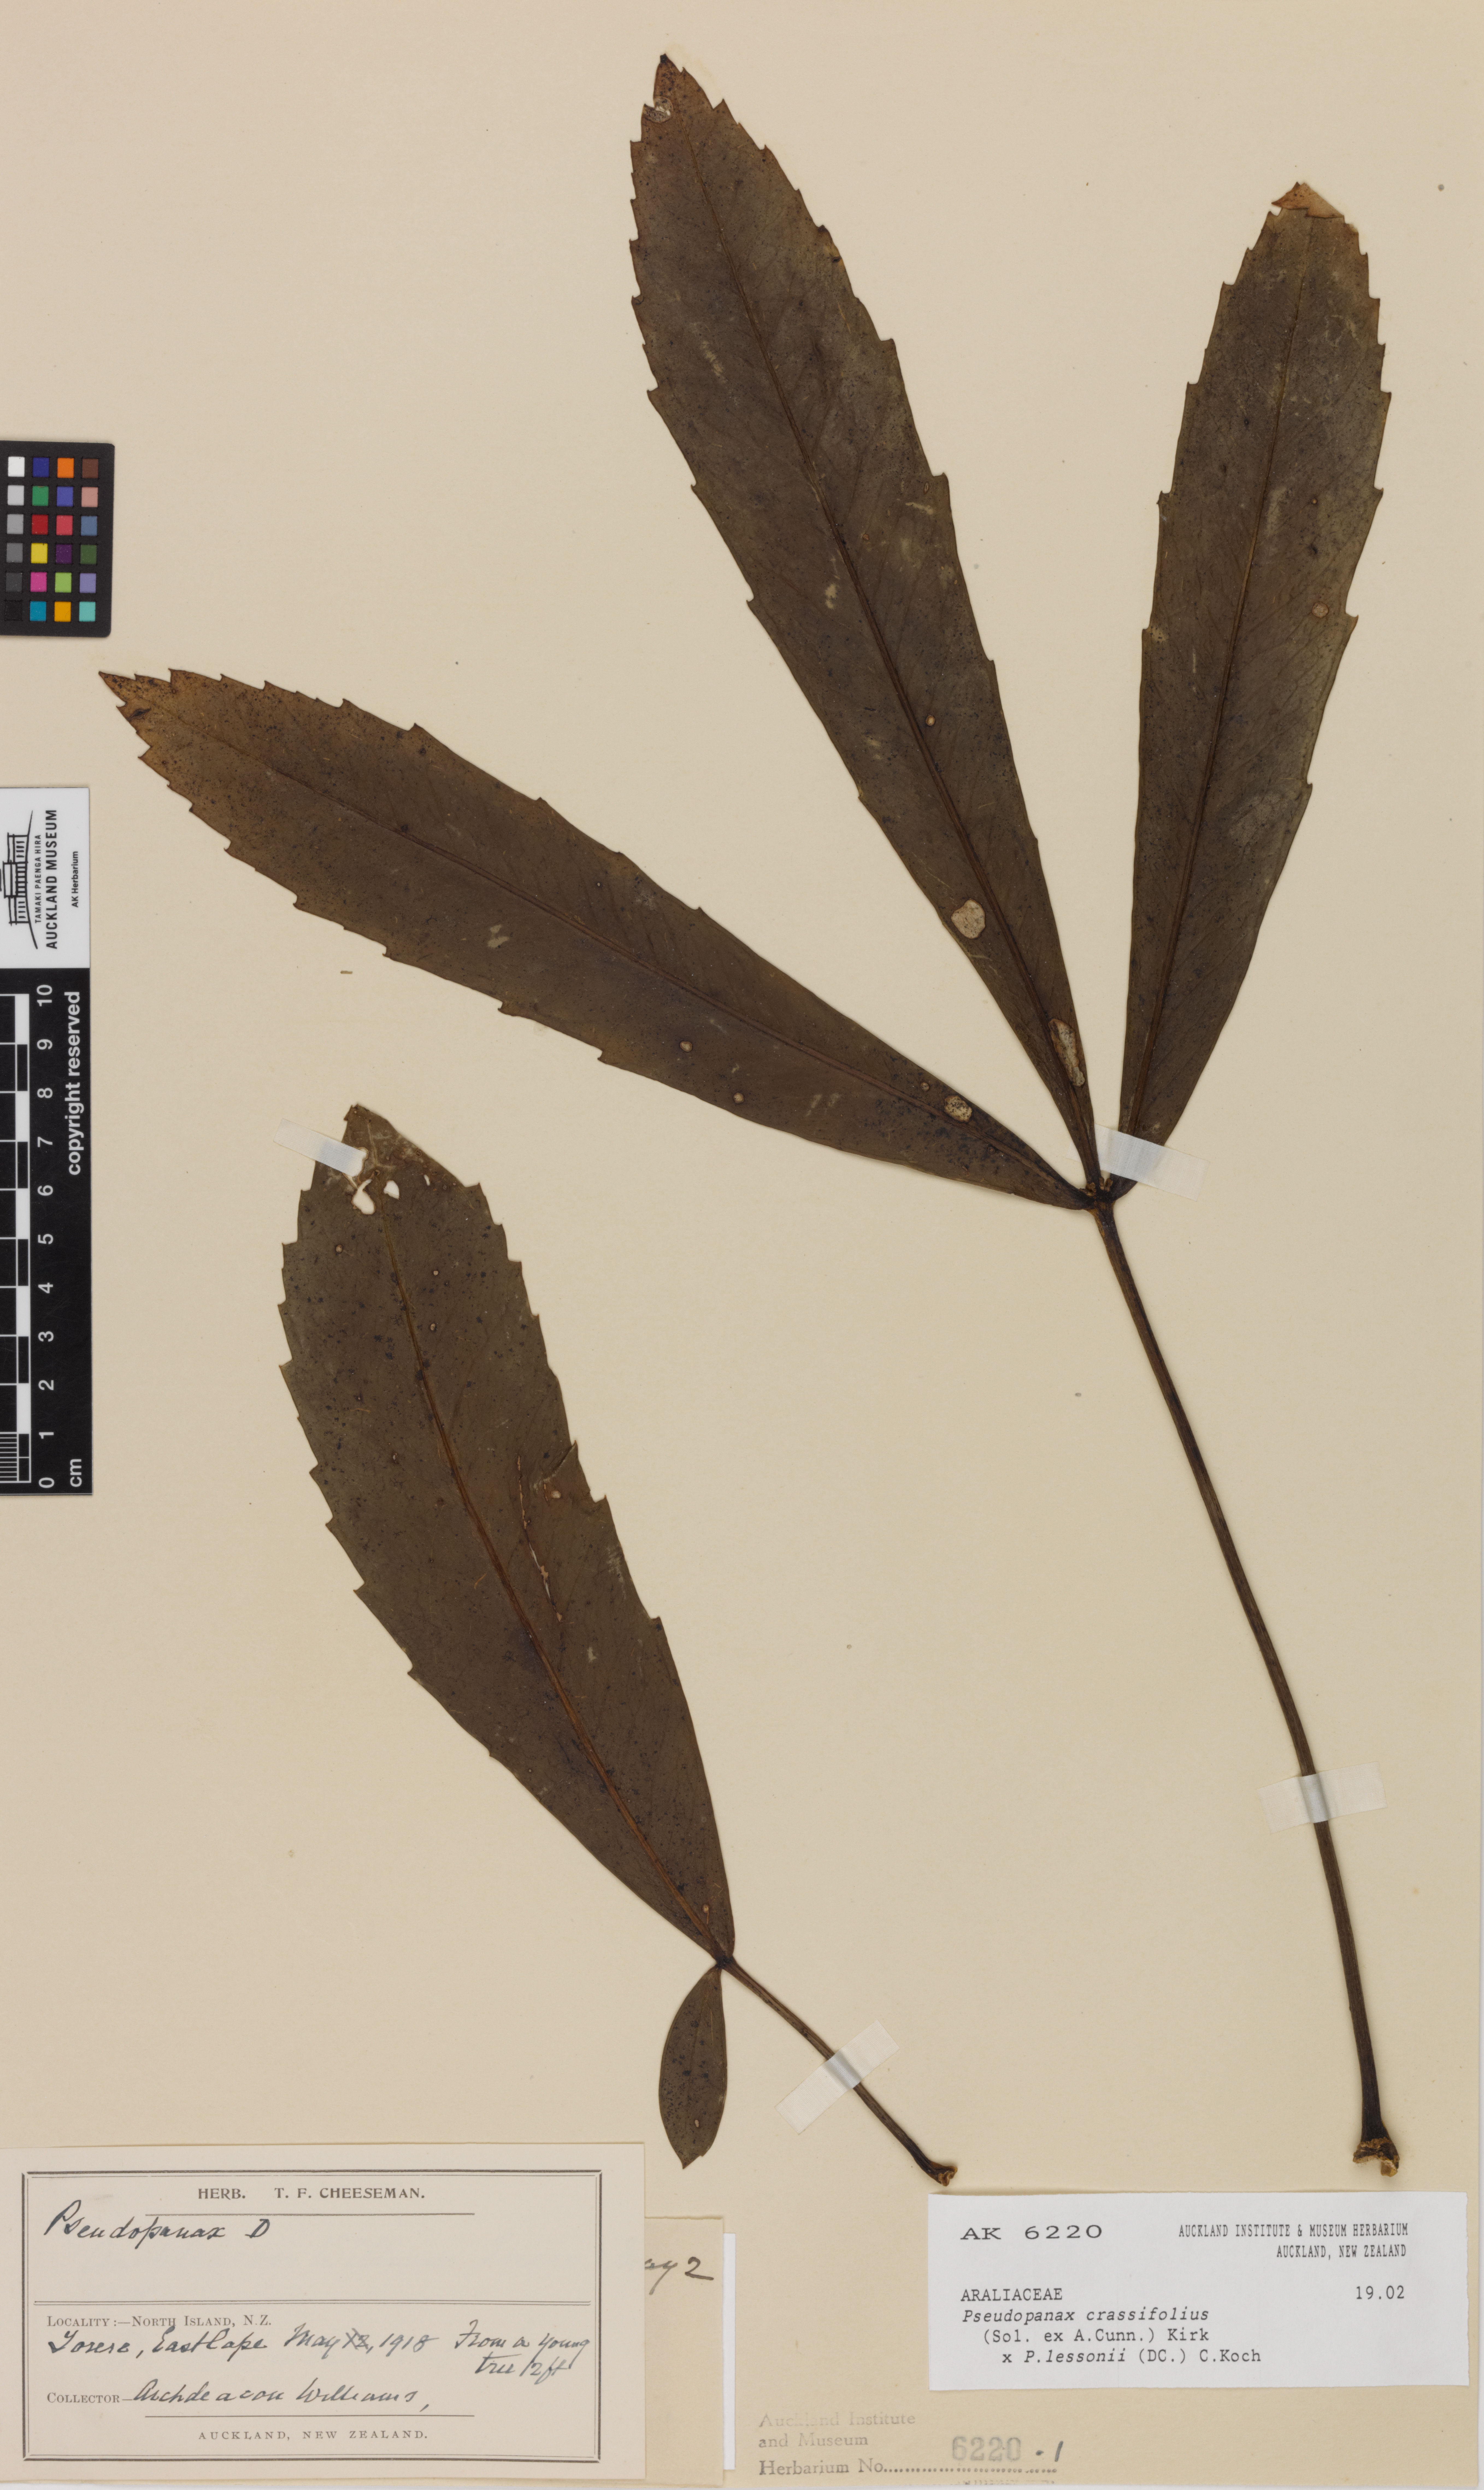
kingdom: Plantae
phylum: Tracheophyta
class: Magnoliopsida
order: Apiales
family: Araliaceae
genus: Pseudopanax
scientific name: Pseudopanax
